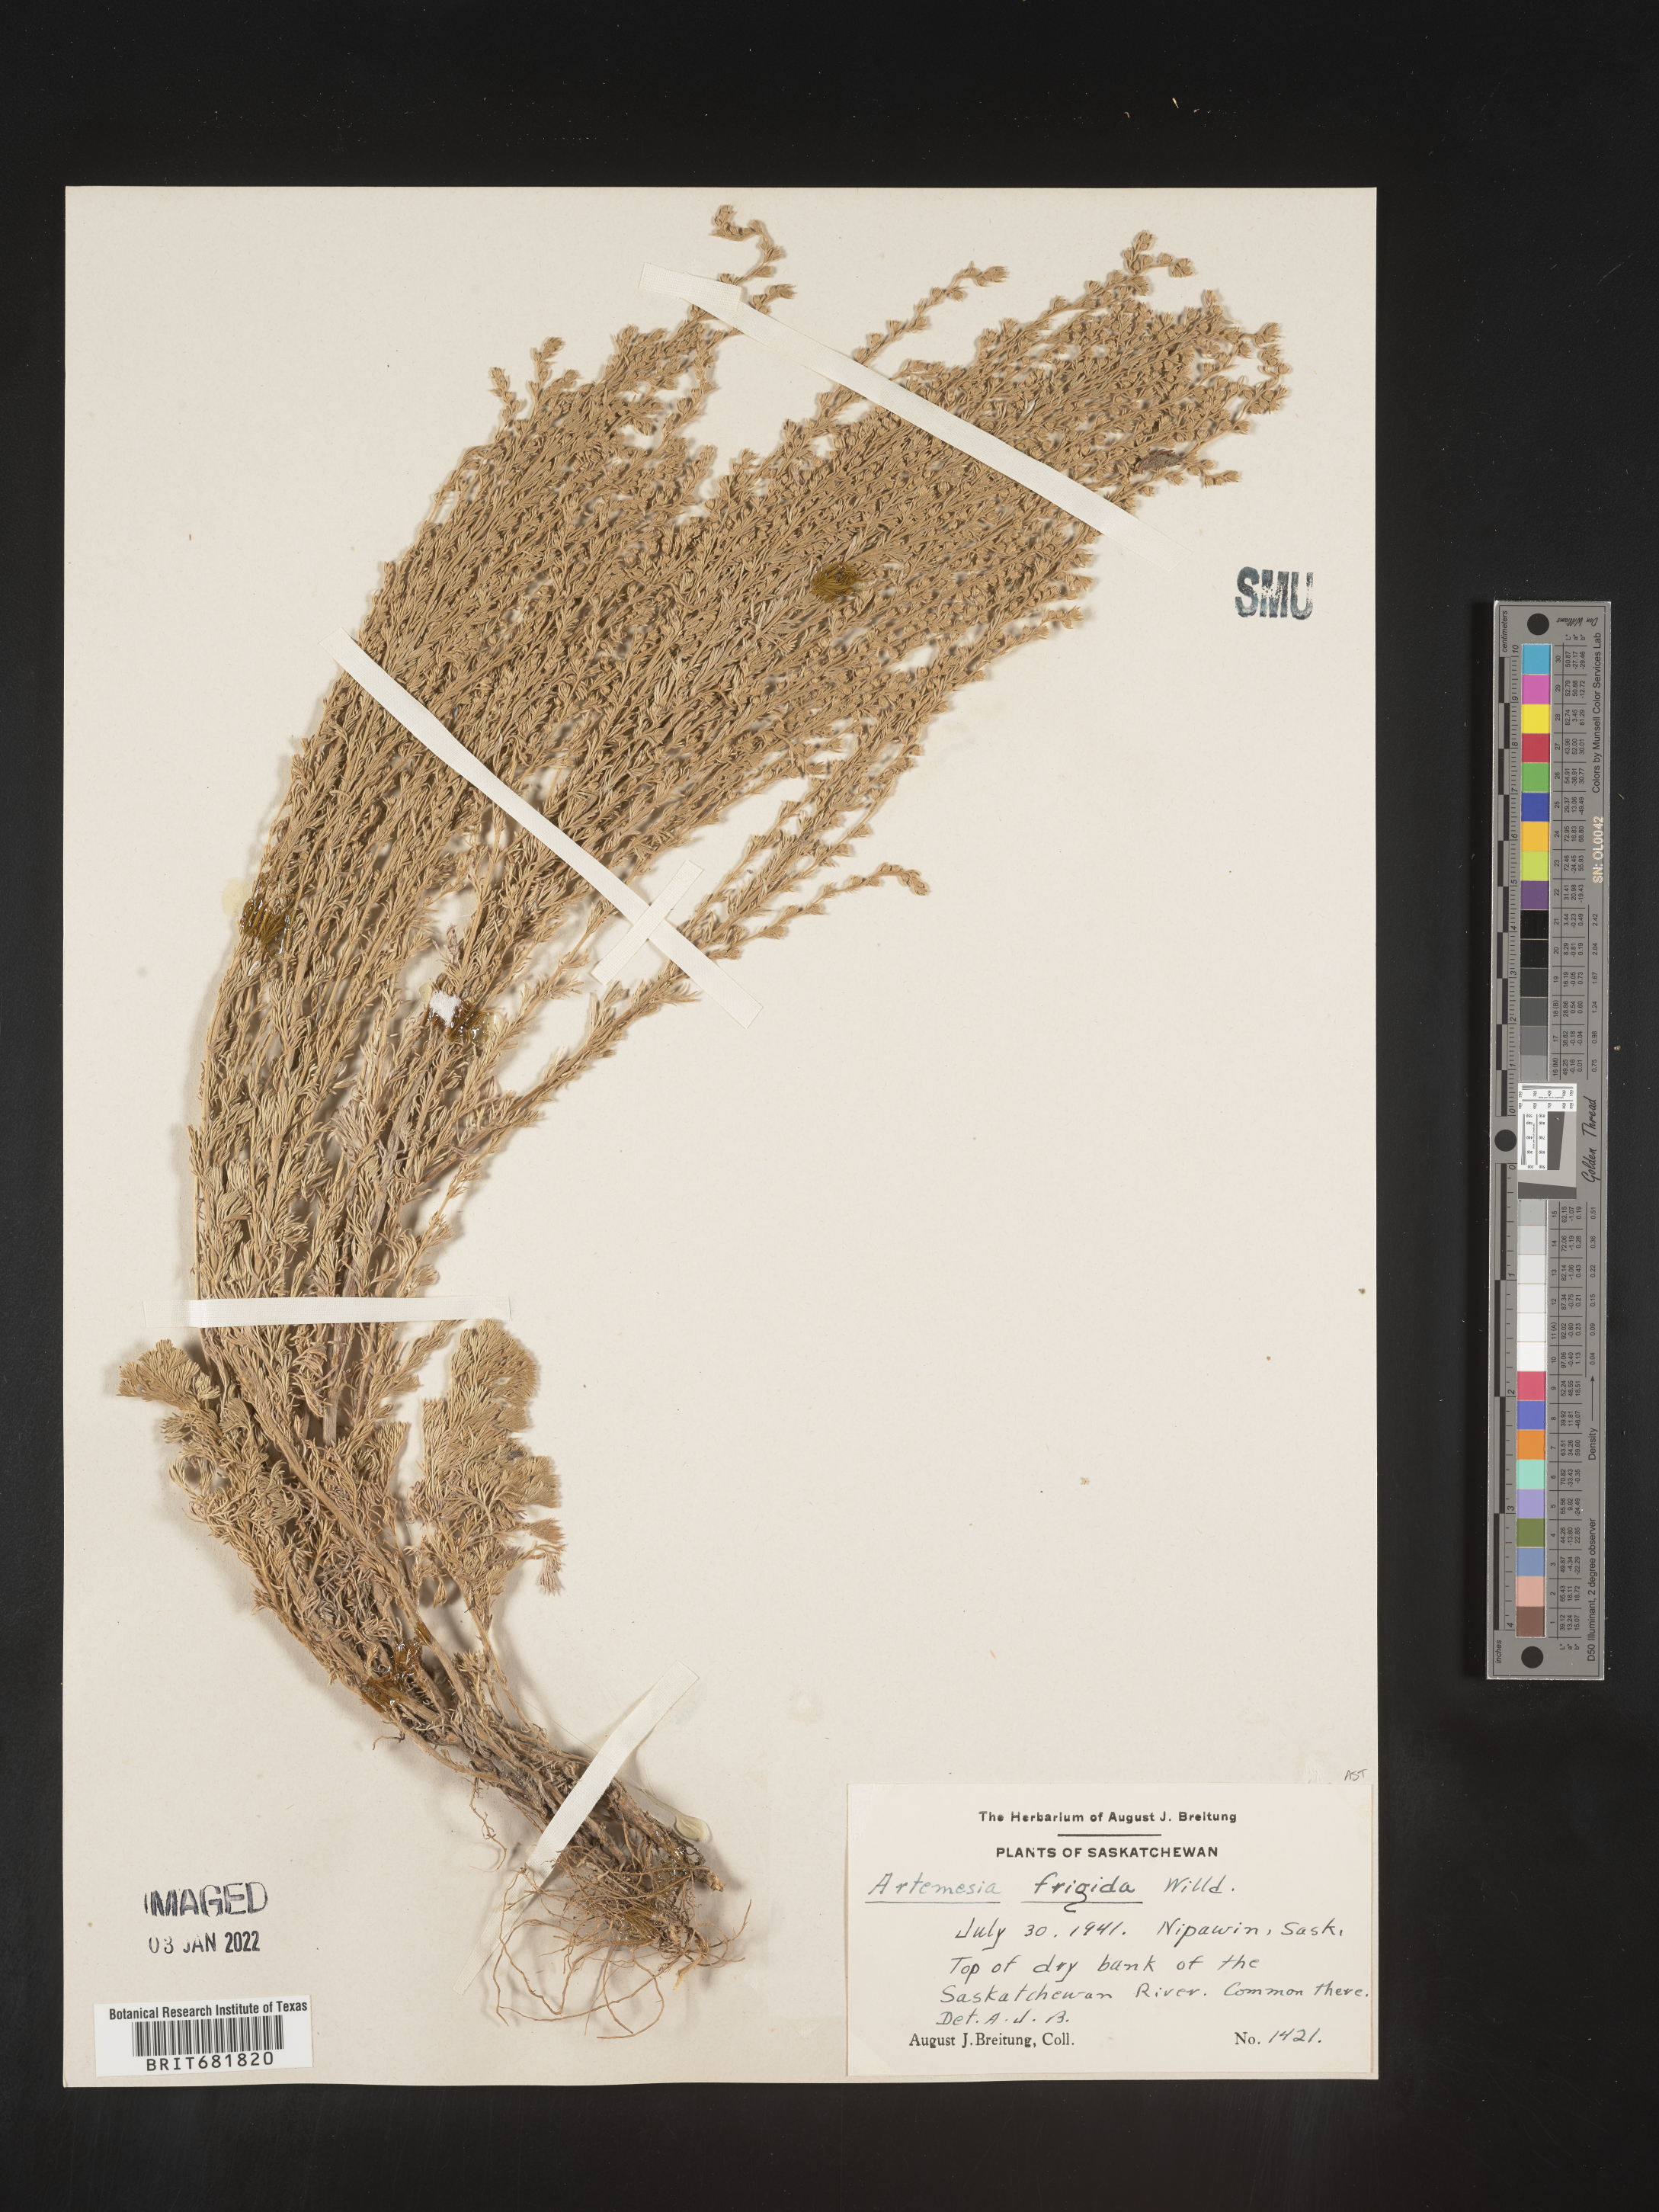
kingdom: Plantae
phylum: Tracheophyta
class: Magnoliopsida
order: Asterales
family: Asteraceae
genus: Artemisia
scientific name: Artemisia frigida
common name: Prairie sagewort
